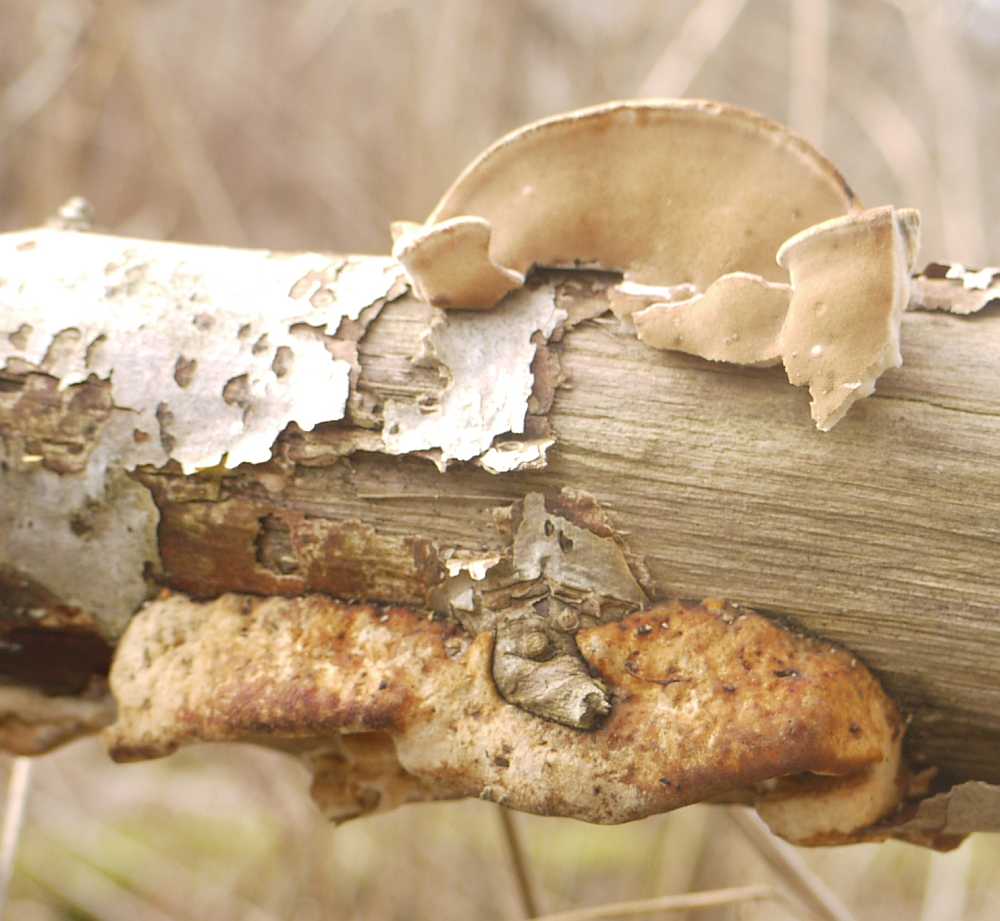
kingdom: Fungi
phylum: Basidiomycota
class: Agaricomycetes
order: Polyporales
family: Incrustoporiaceae
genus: Skeletocutis
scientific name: Skeletocutis nemoralis
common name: stor krystalporesvamp
